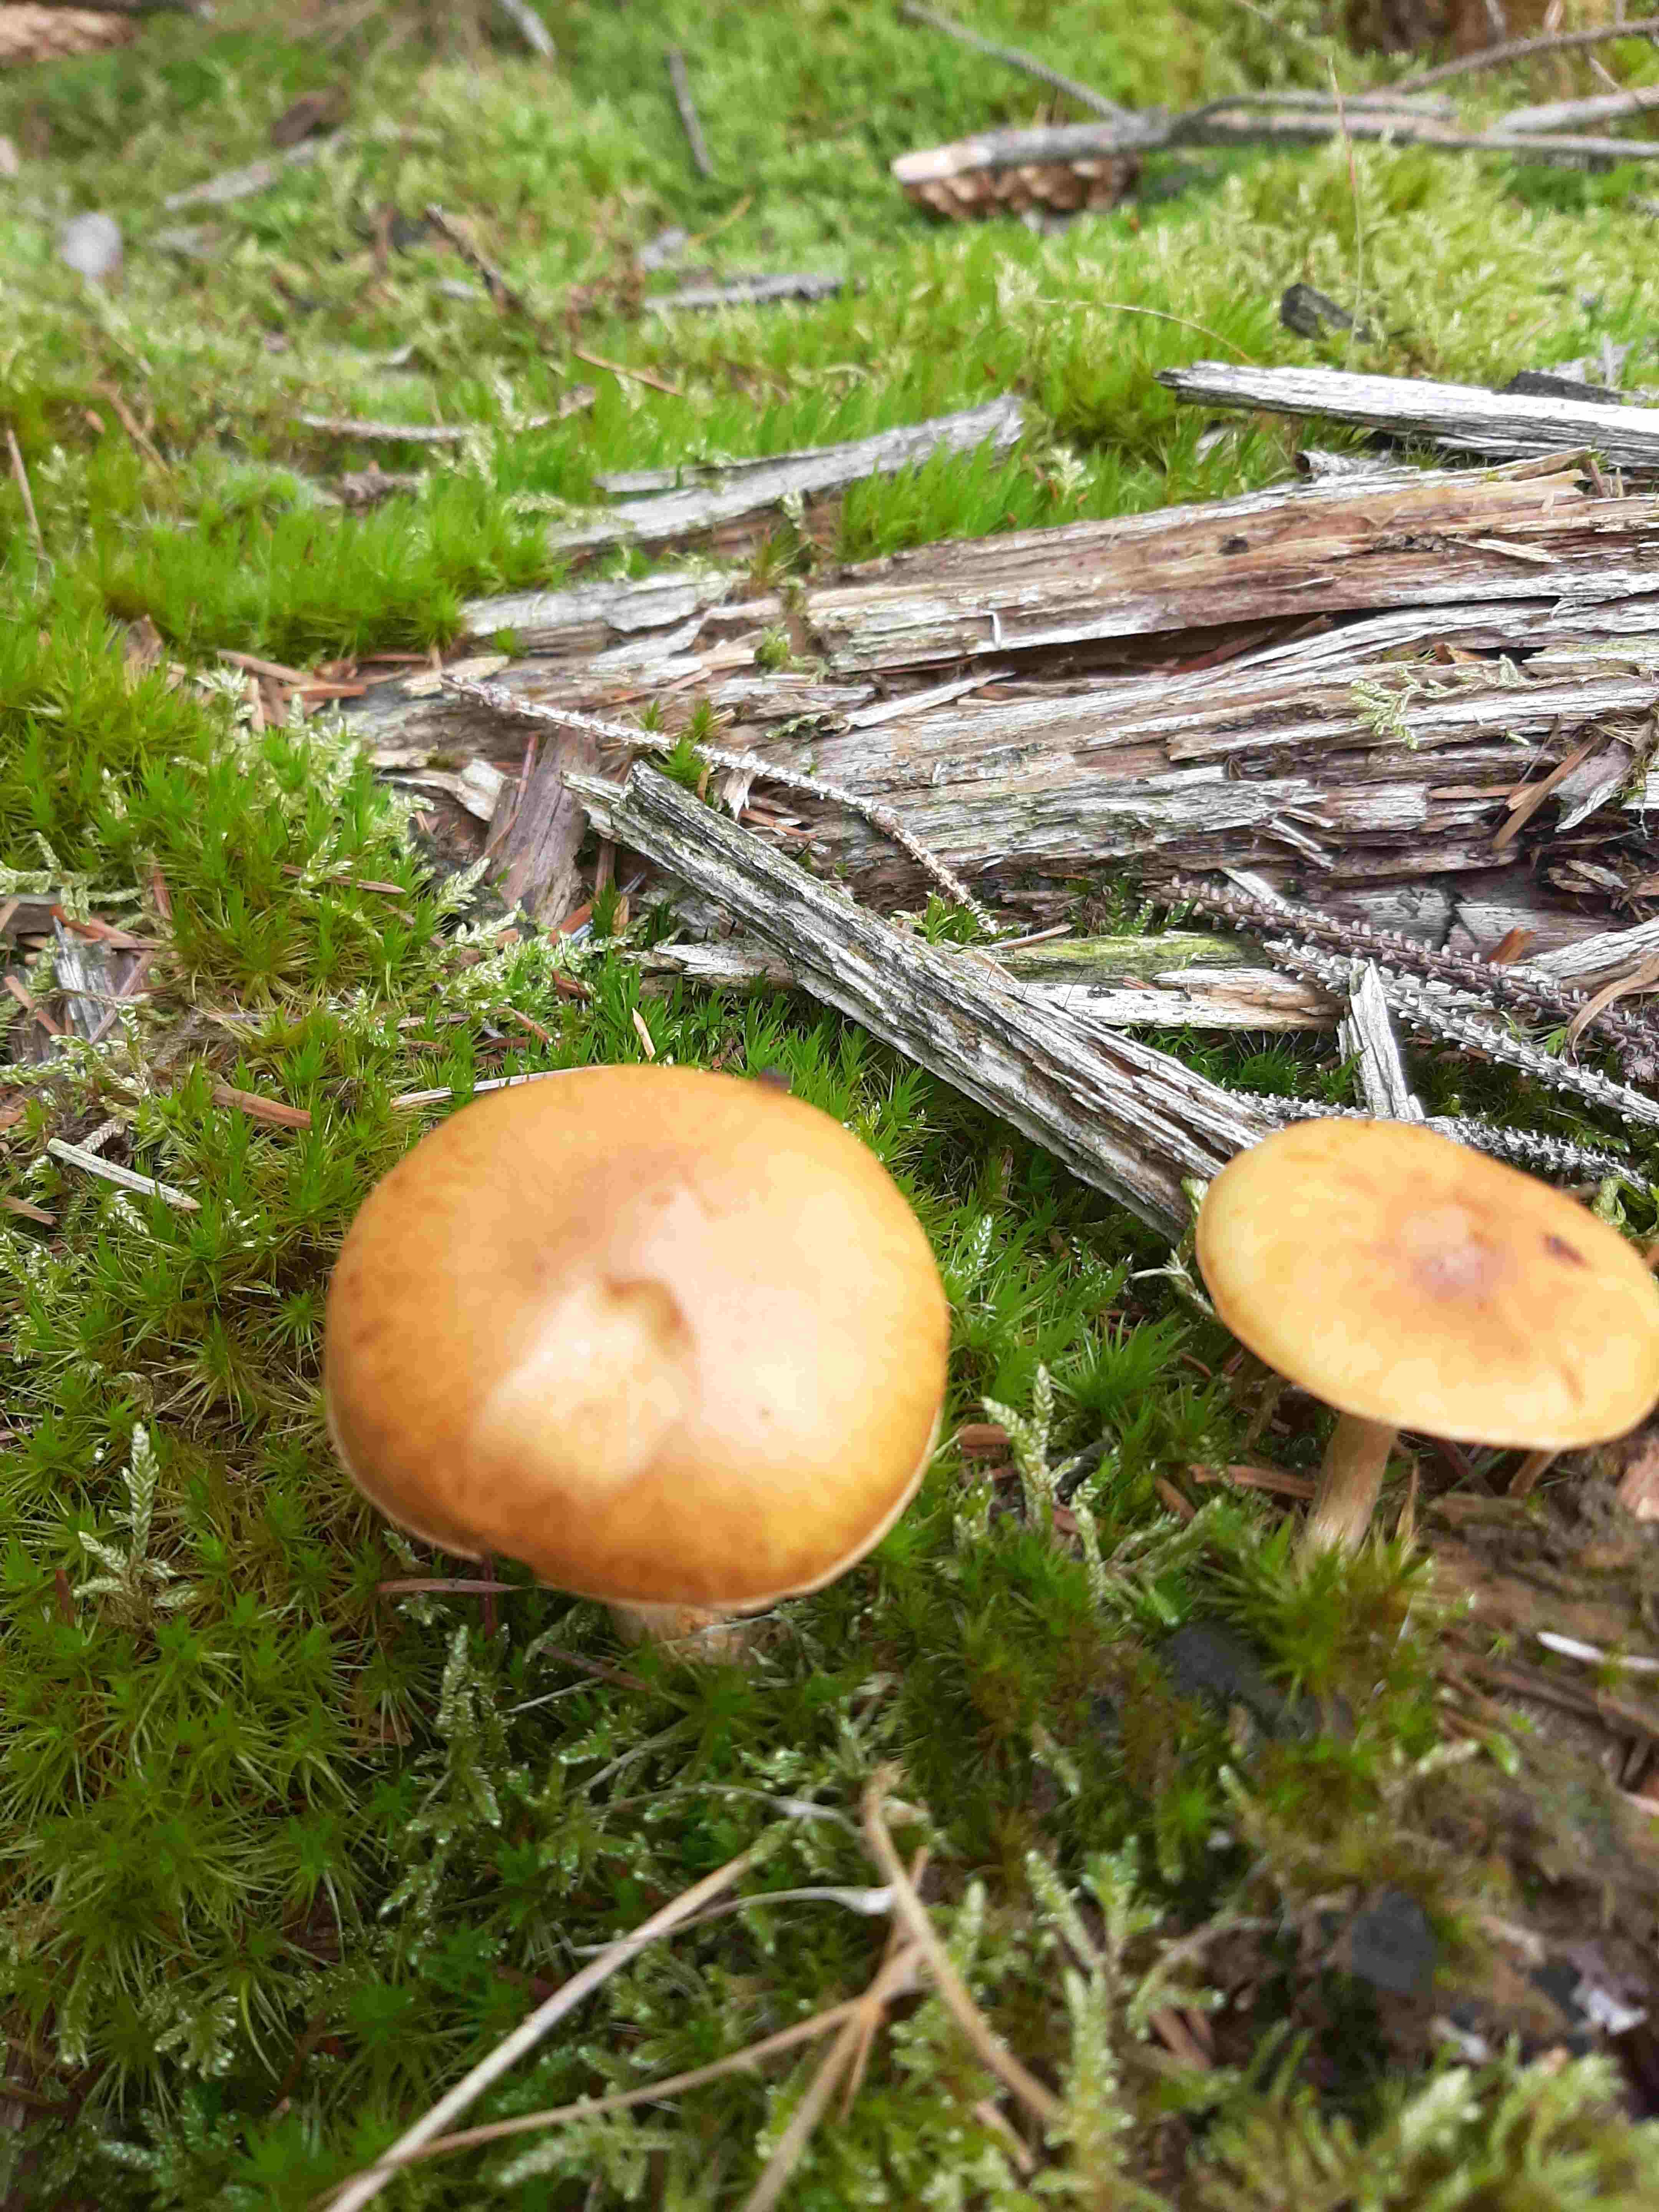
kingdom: Fungi
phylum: Basidiomycota
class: Agaricomycetes
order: Agaricales
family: Hymenogastraceae
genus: Gymnopilus
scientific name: Gymnopilus penetrans
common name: plettet flammehat
